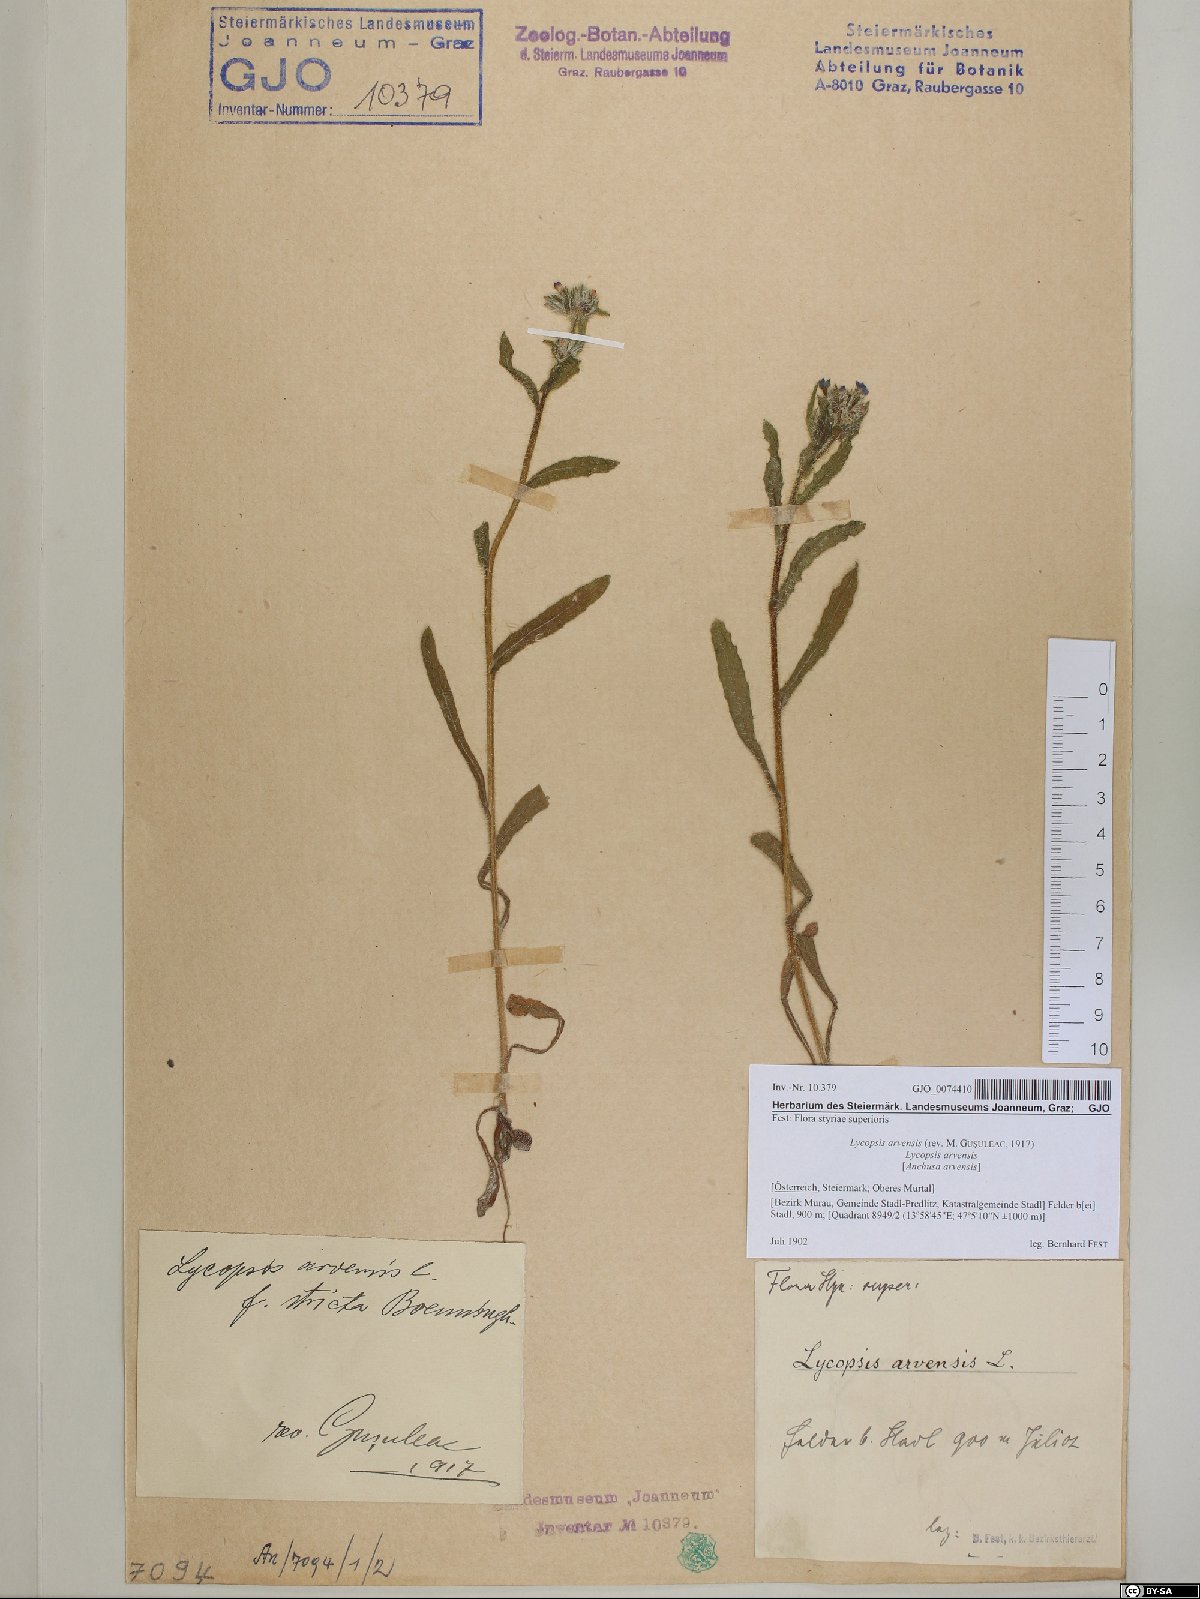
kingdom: Plantae
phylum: Tracheophyta
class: Magnoliopsida
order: Boraginales
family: Boraginaceae
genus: Lycopsis
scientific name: Lycopsis arvensis
